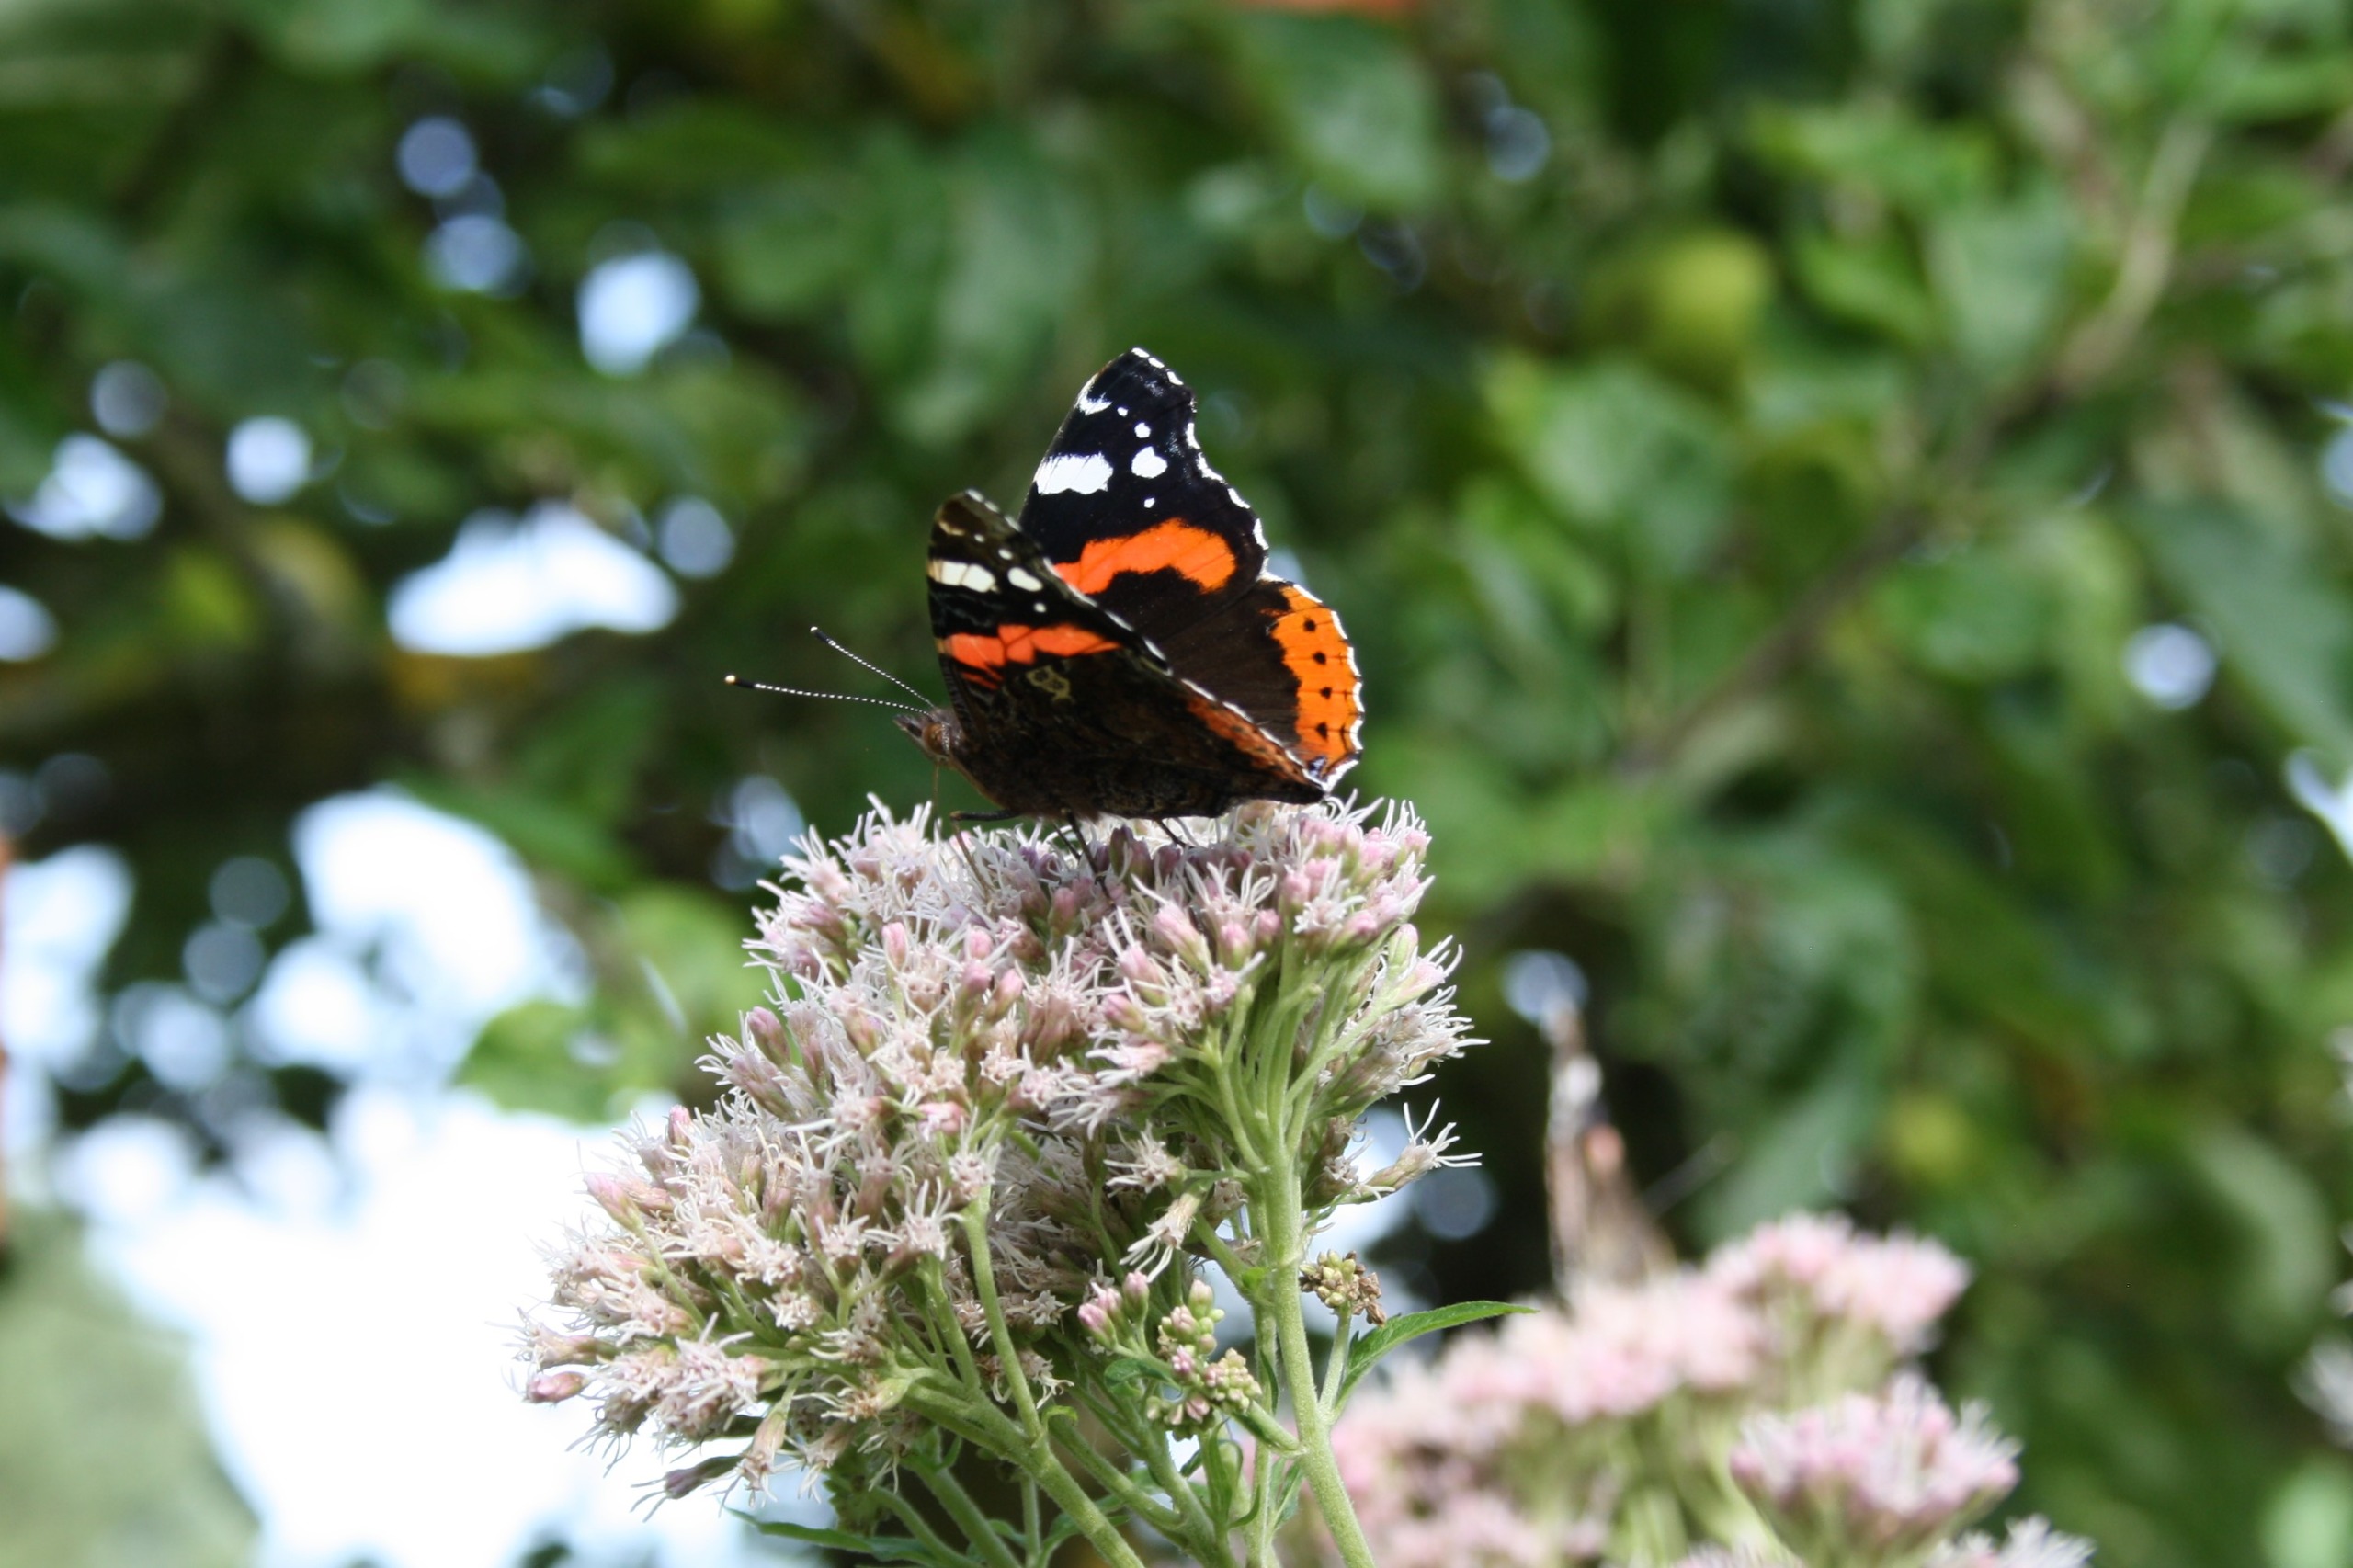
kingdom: Animalia
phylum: Arthropoda
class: Insecta
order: Lepidoptera
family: Nymphalidae
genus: Vanessa
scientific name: Vanessa atalanta
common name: Admiral
